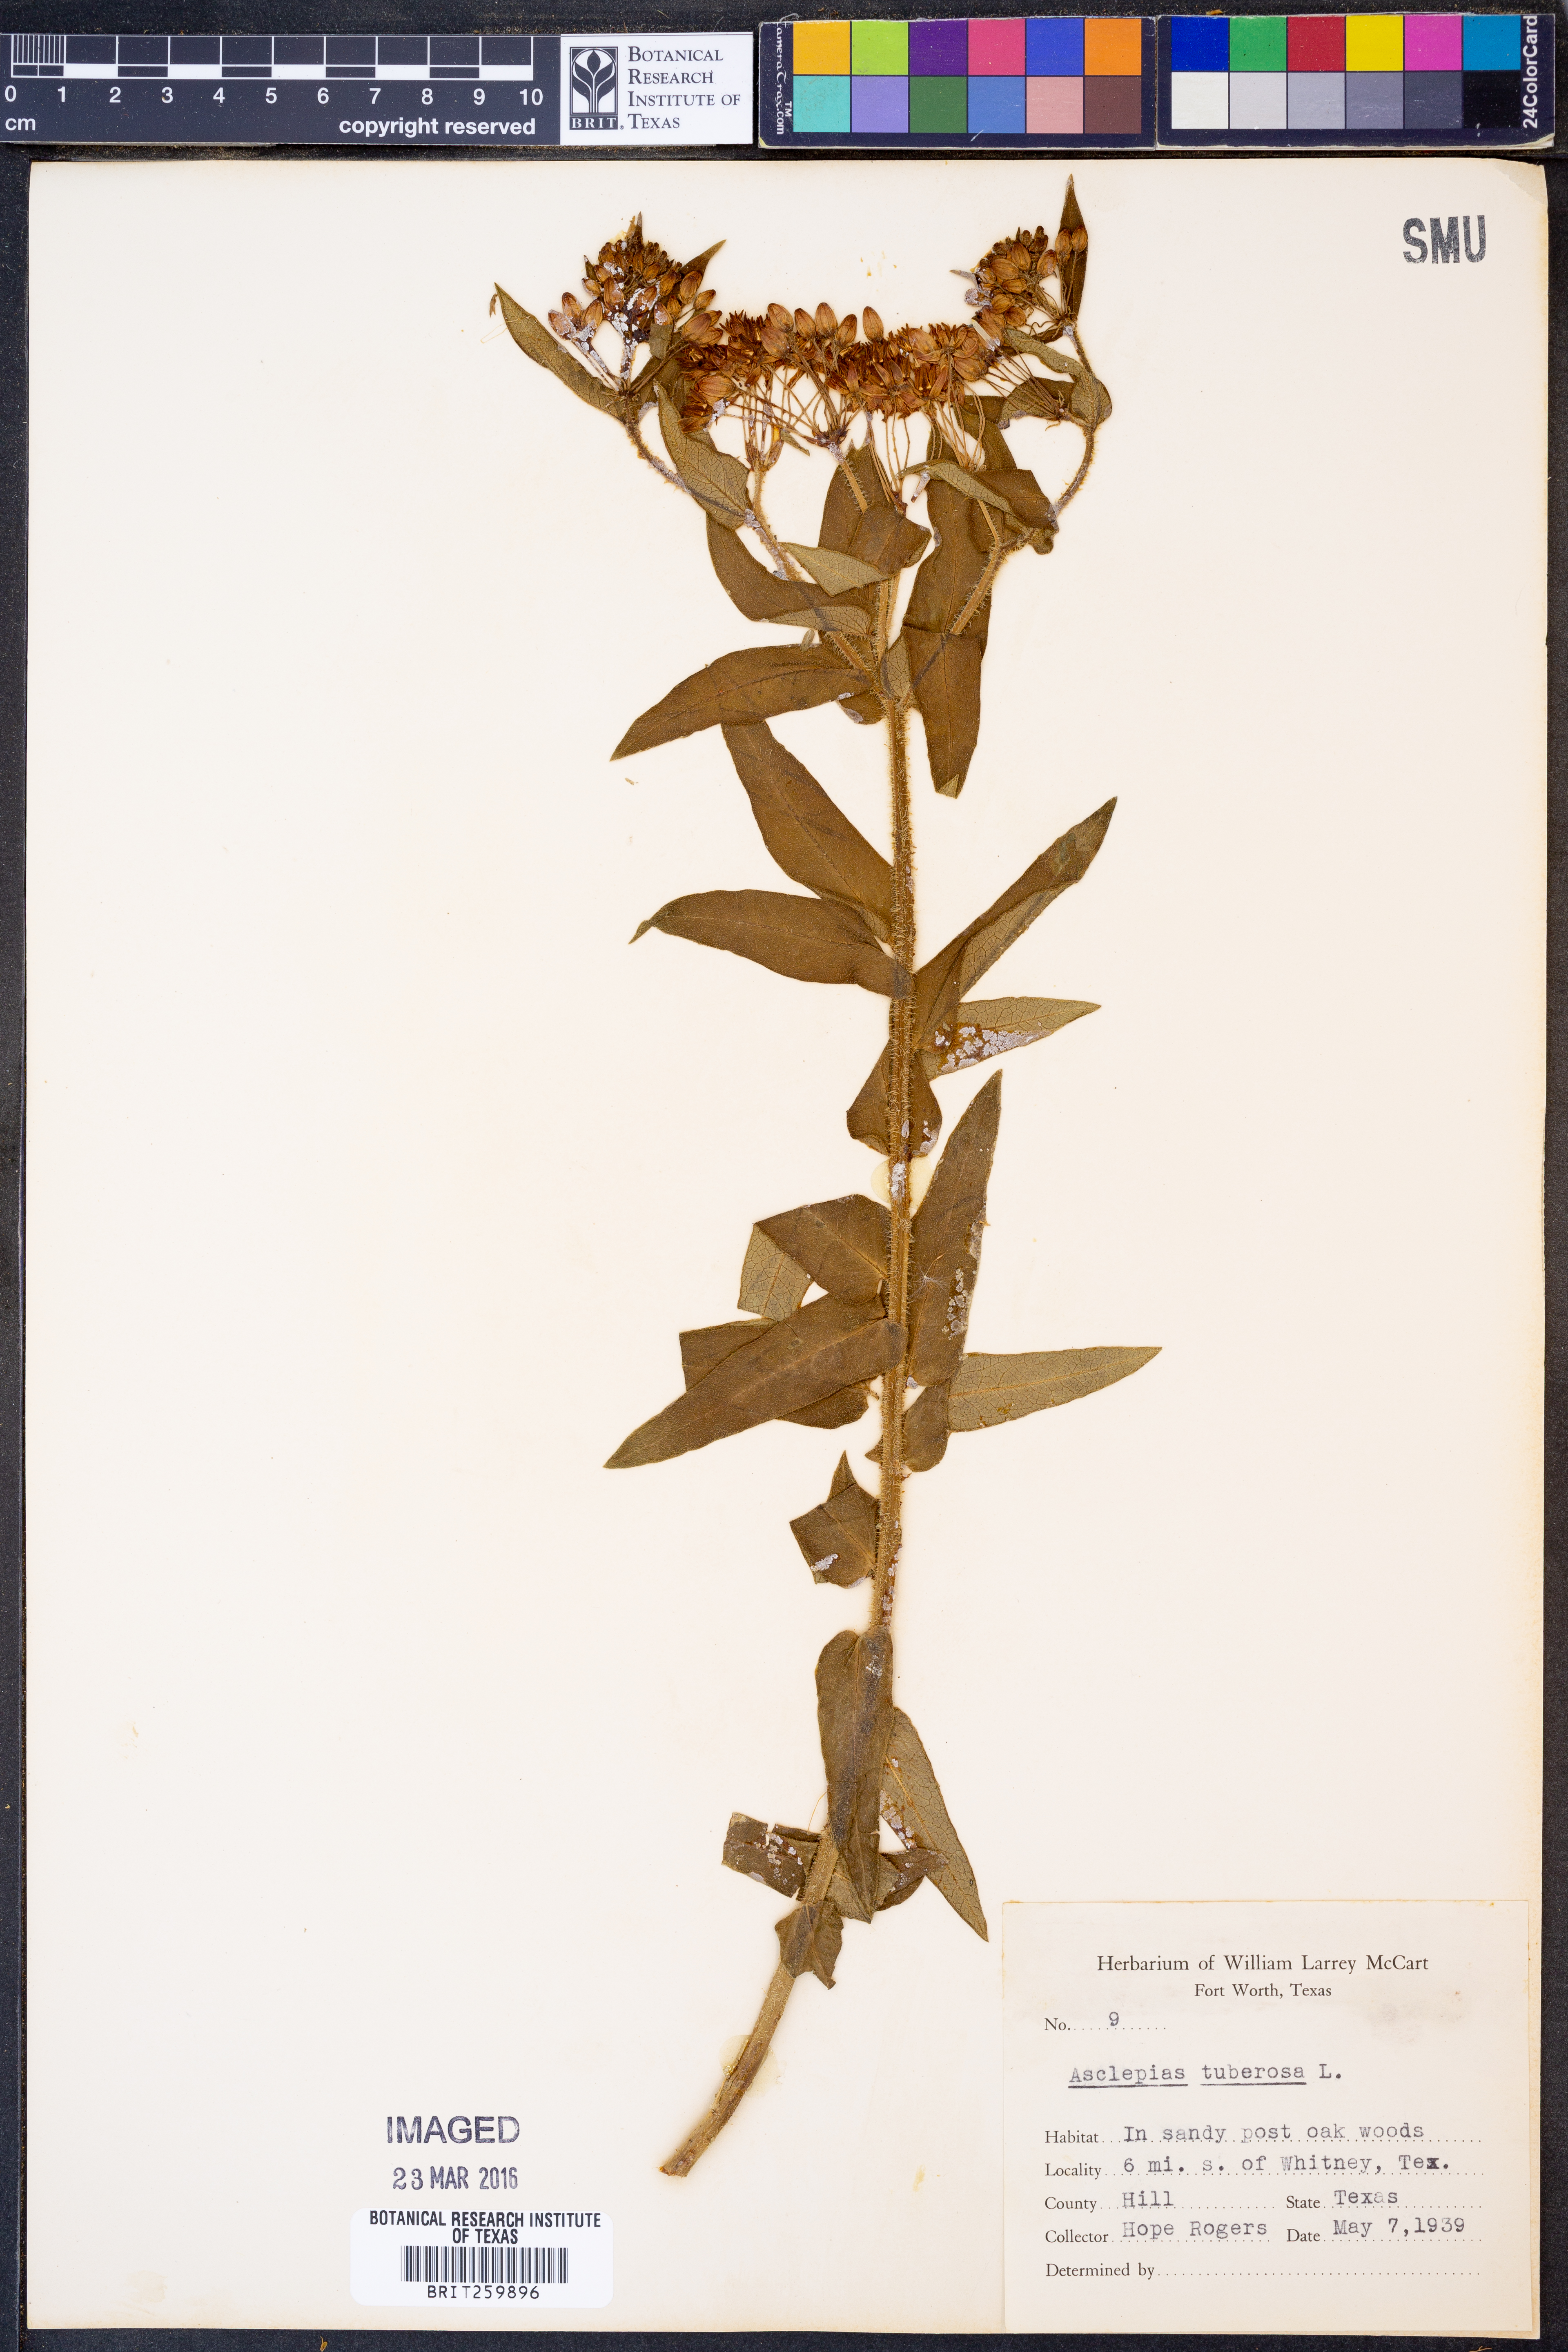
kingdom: Plantae
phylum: Tracheophyta
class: Magnoliopsida
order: Gentianales
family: Apocynaceae
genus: Asclepias
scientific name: Asclepias tuberosa
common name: Butterfly milkweed
